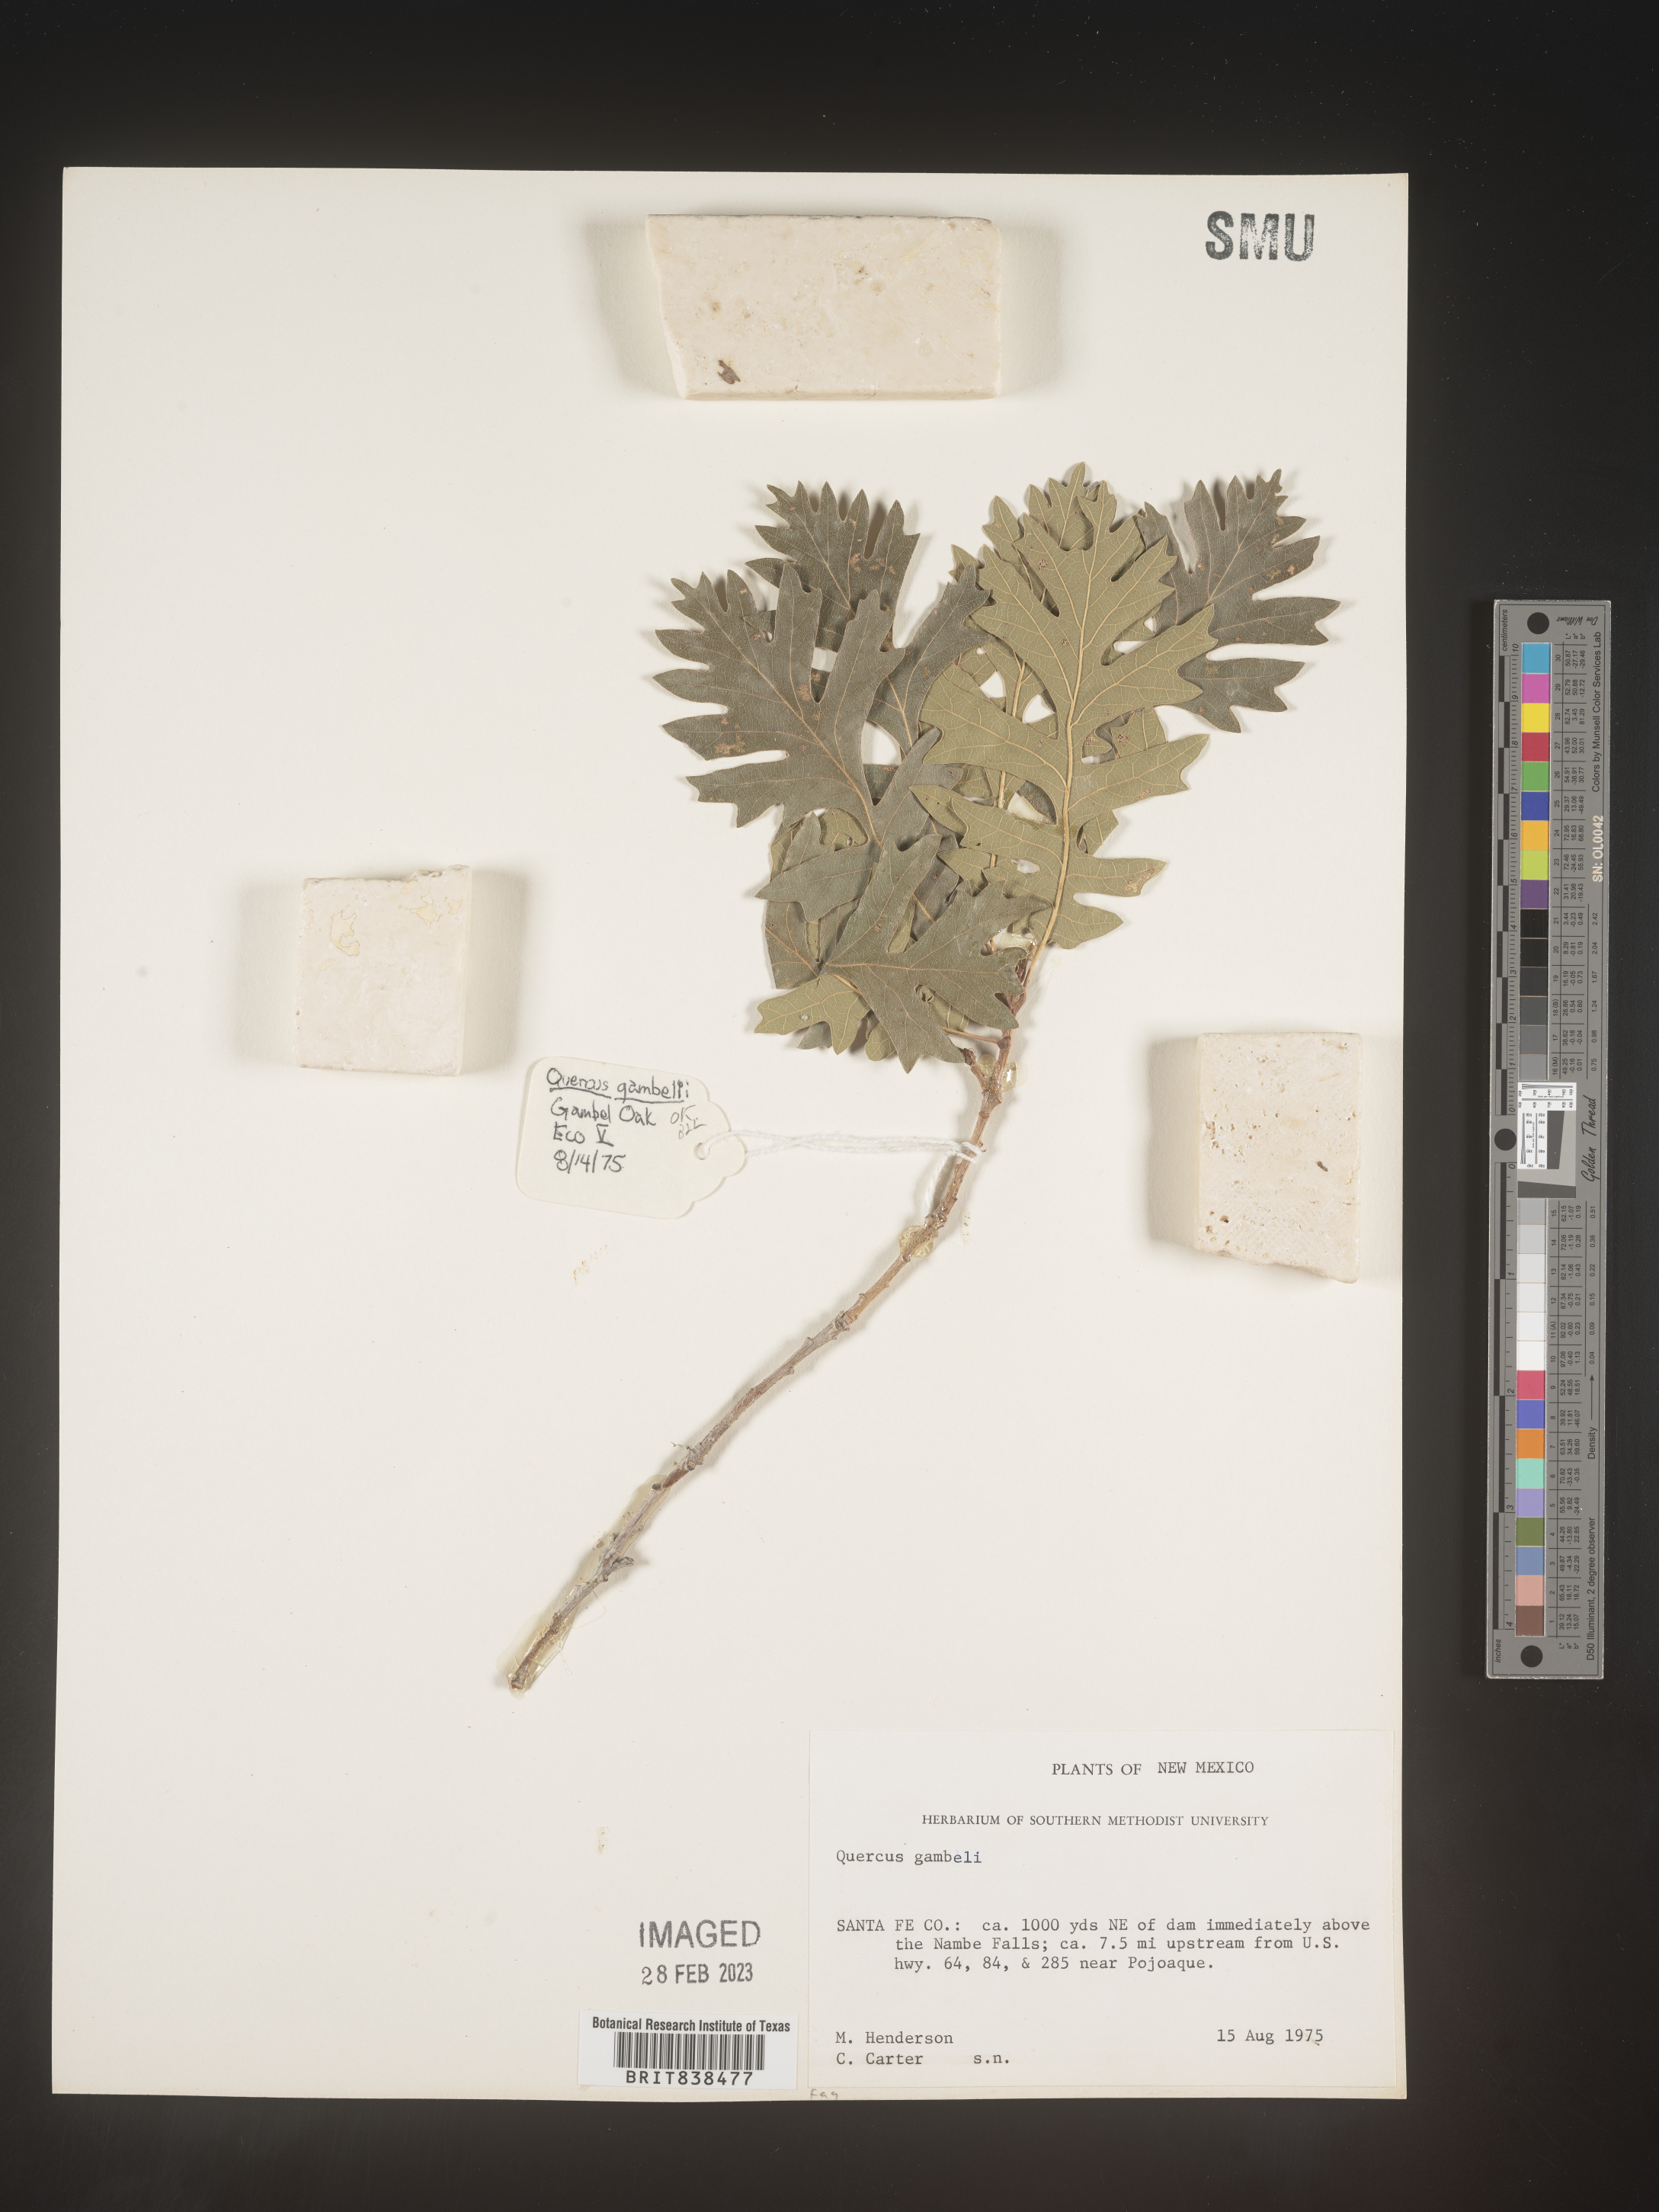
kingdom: Plantae
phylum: Tracheophyta
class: Magnoliopsida
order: Fagales
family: Fagaceae
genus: Quercus
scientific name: Quercus gambelii
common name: Gambel oak
